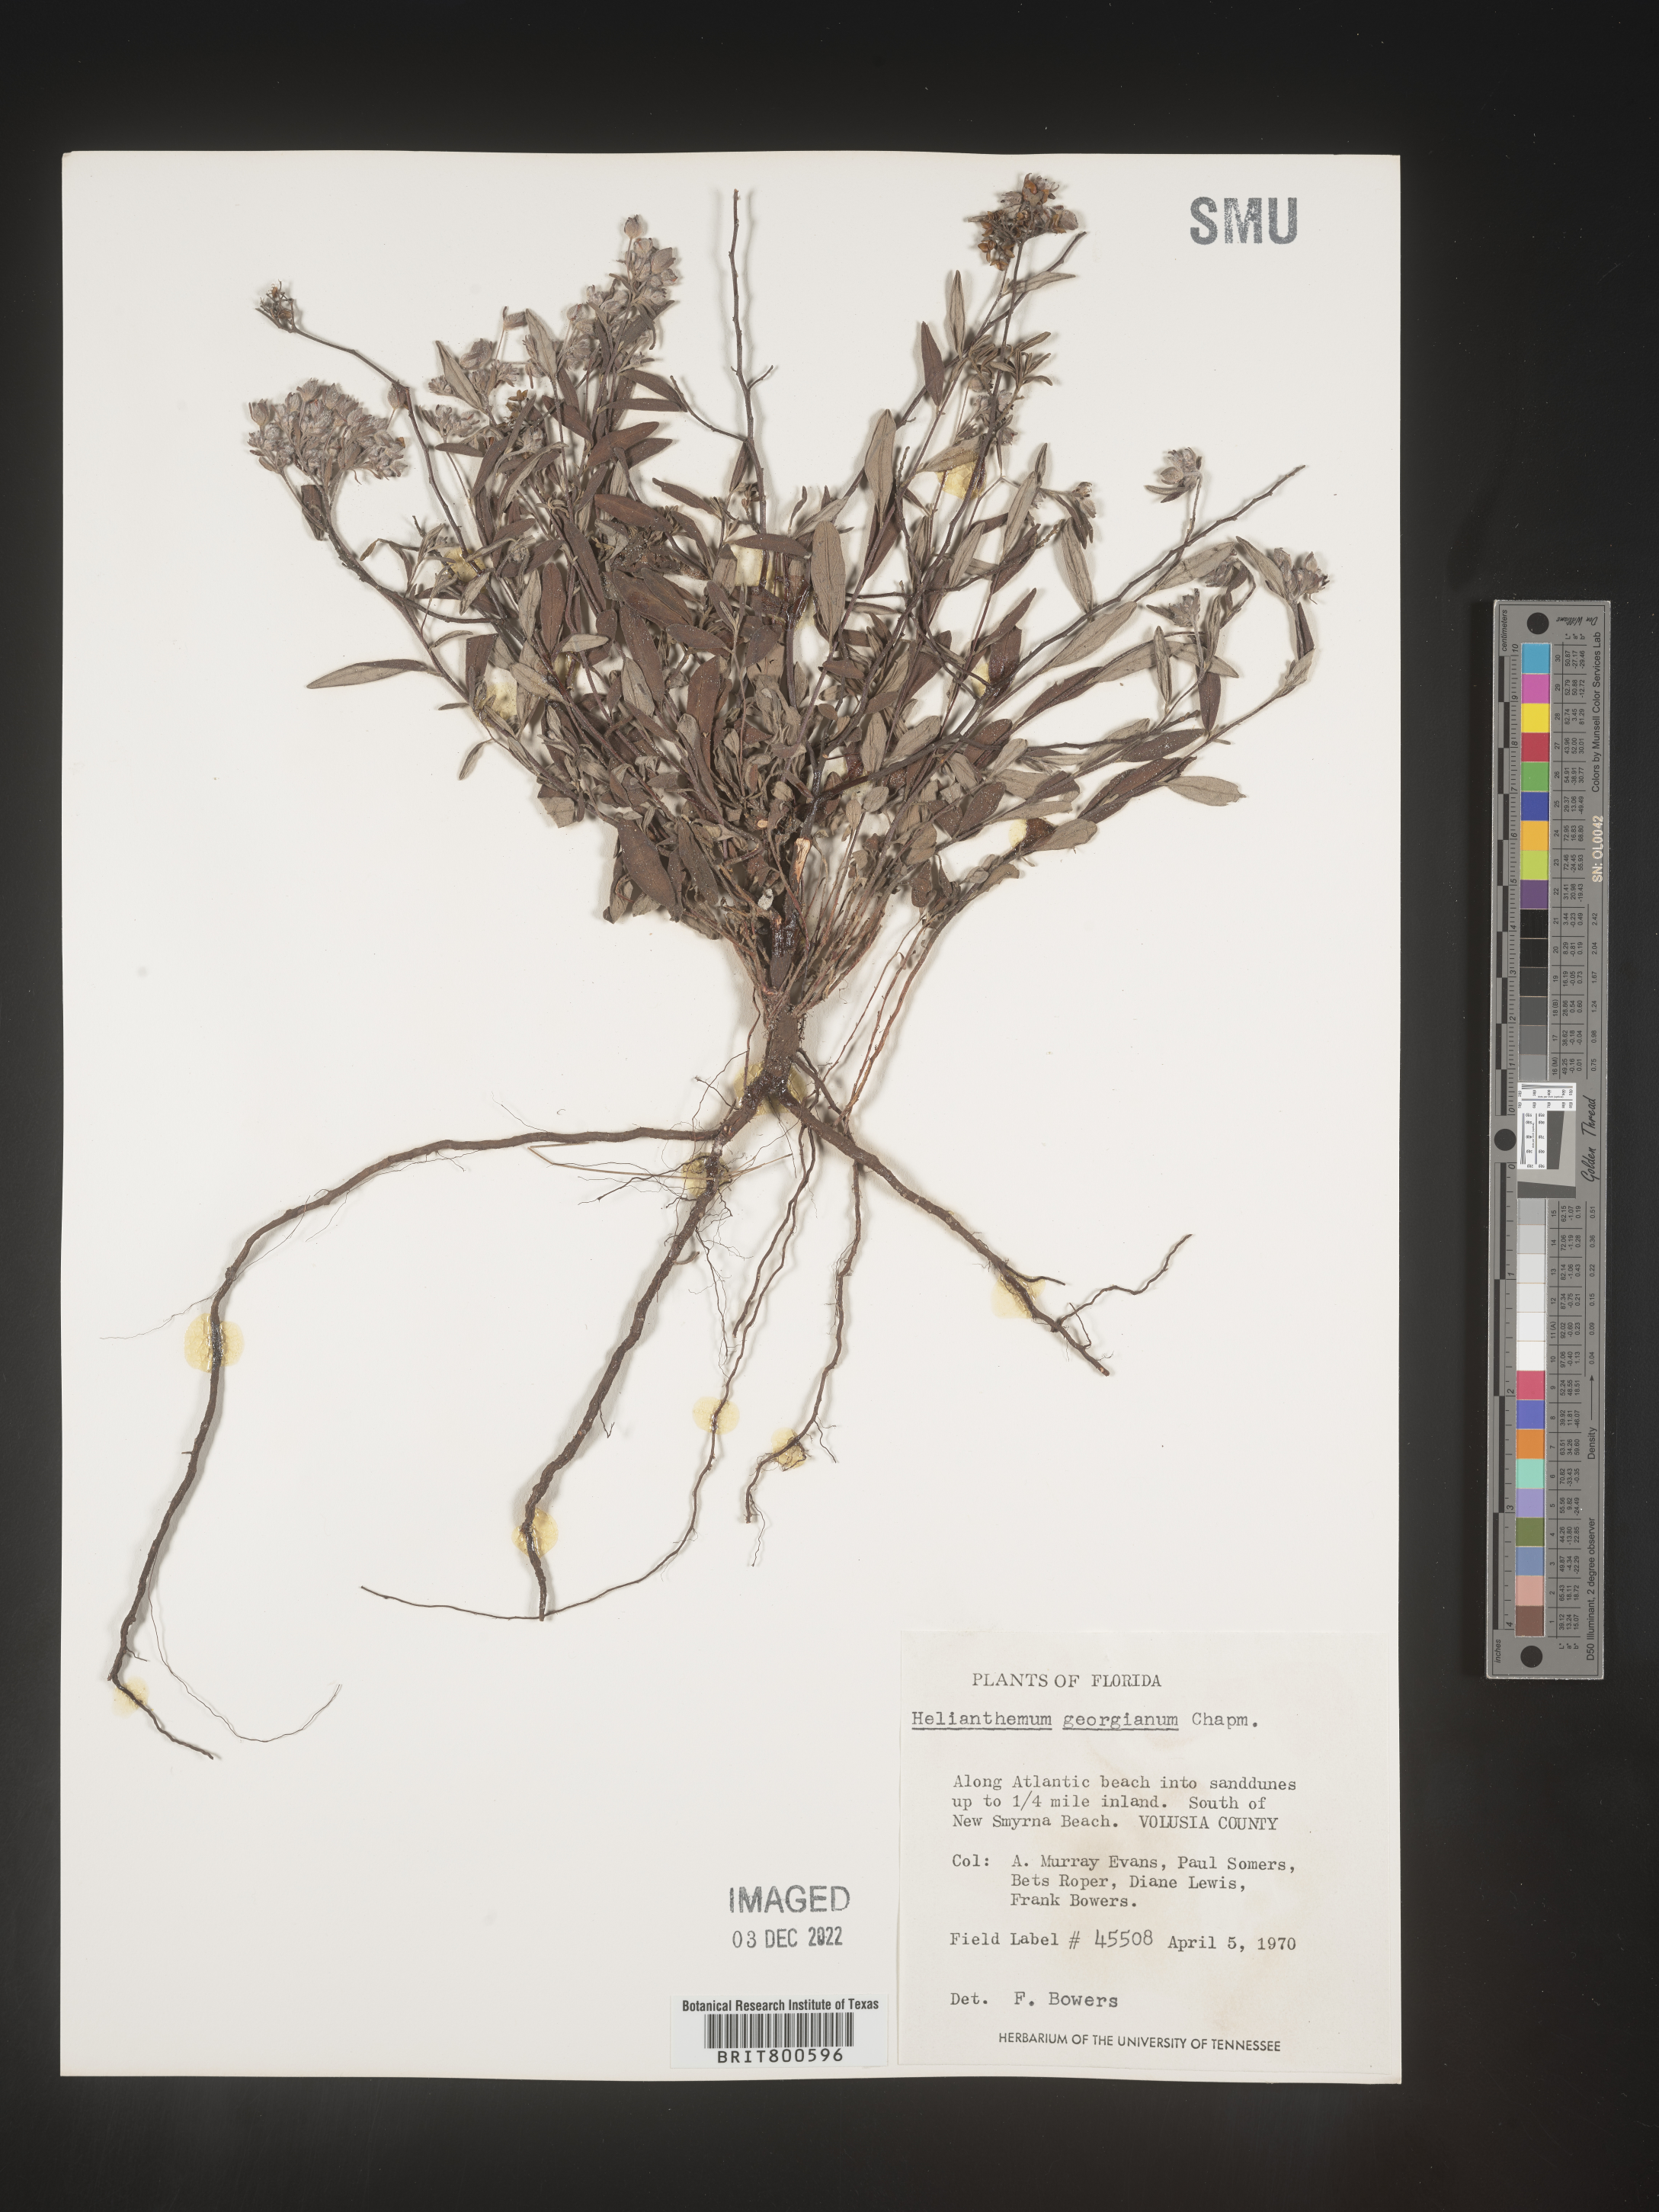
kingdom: Plantae
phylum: Tracheophyta
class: Magnoliopsida
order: Malvales
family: Cistaceae
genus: Crocanthemum
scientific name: Crocanthemum georgianum
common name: Georgia frostweed
